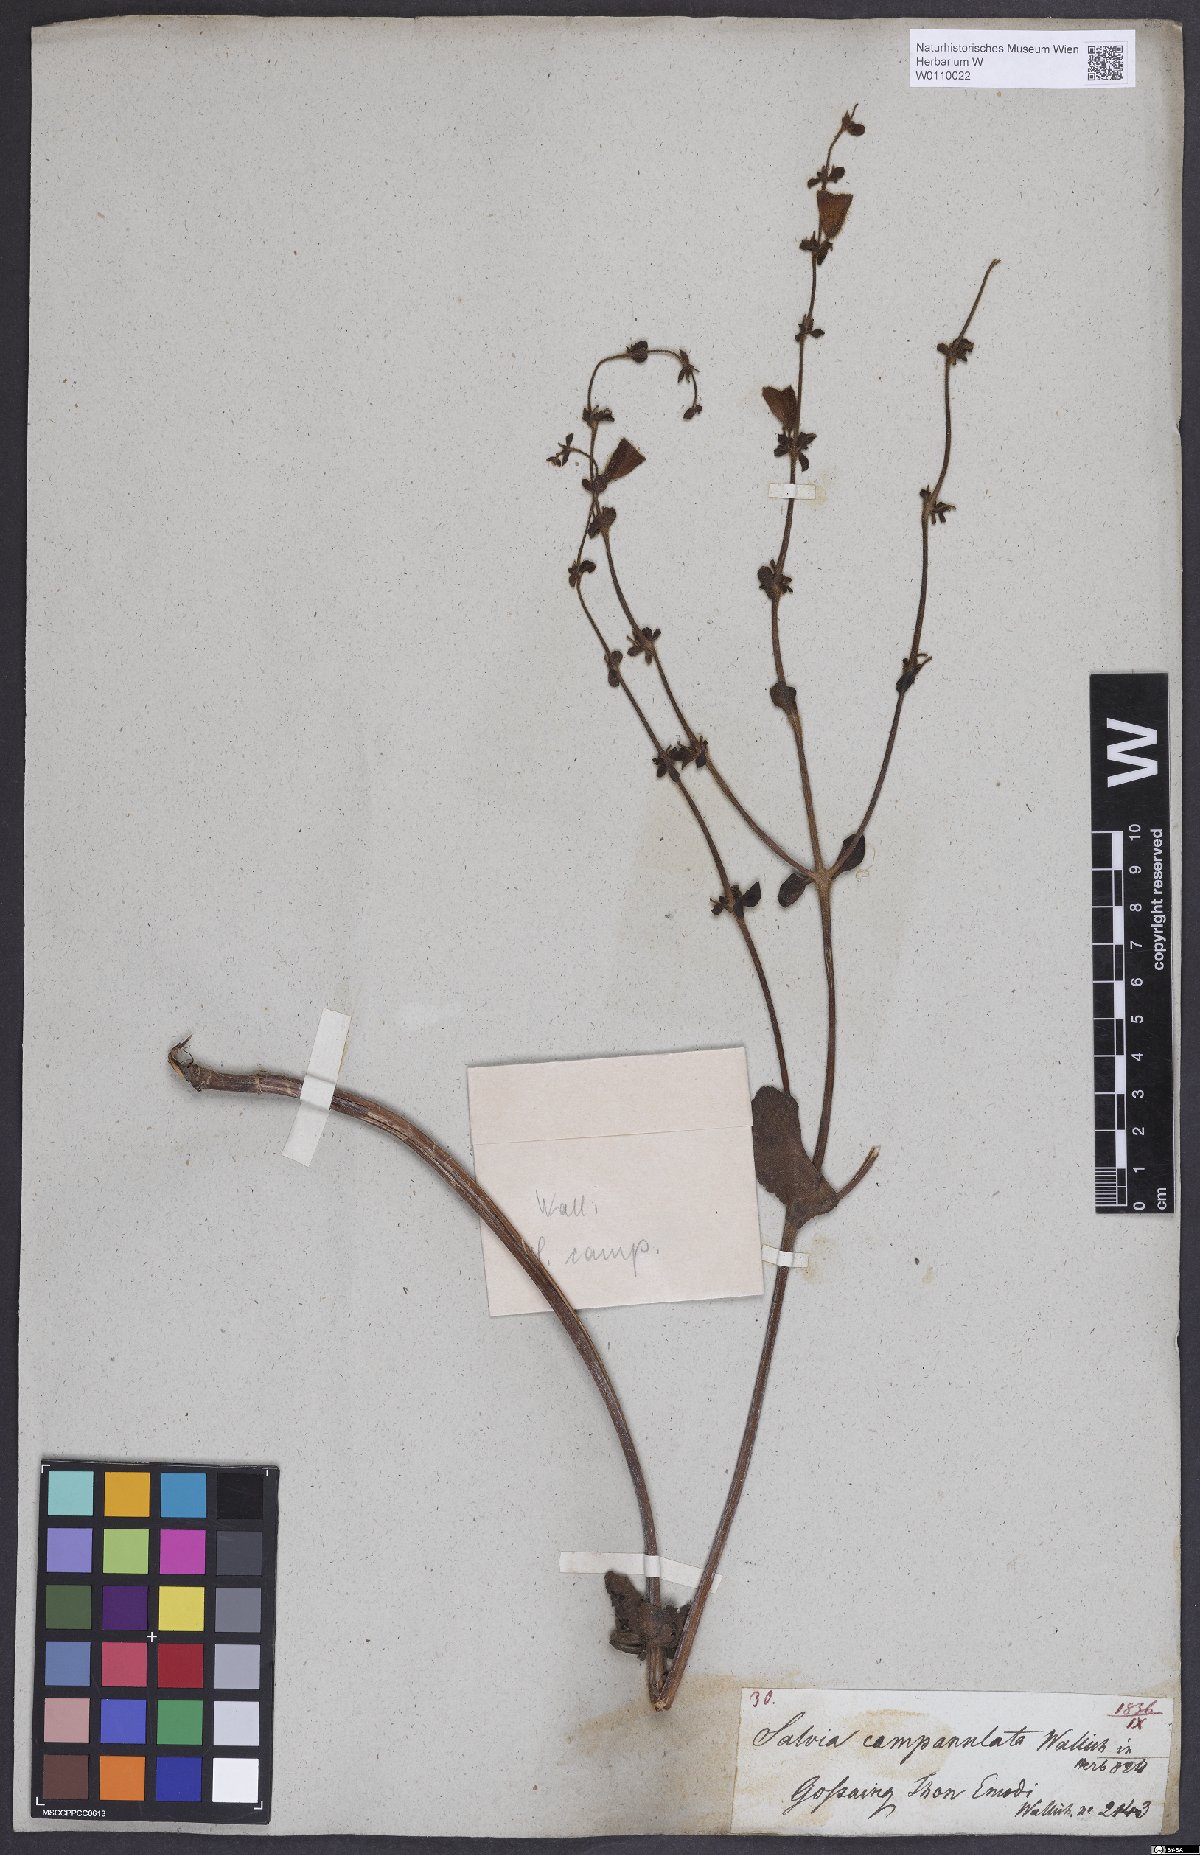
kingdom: Plantae
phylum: Tracheophyta
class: Magnoliopsida
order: Lamiales
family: Lamiaceae
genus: Salvia
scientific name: Salvia campanulata
